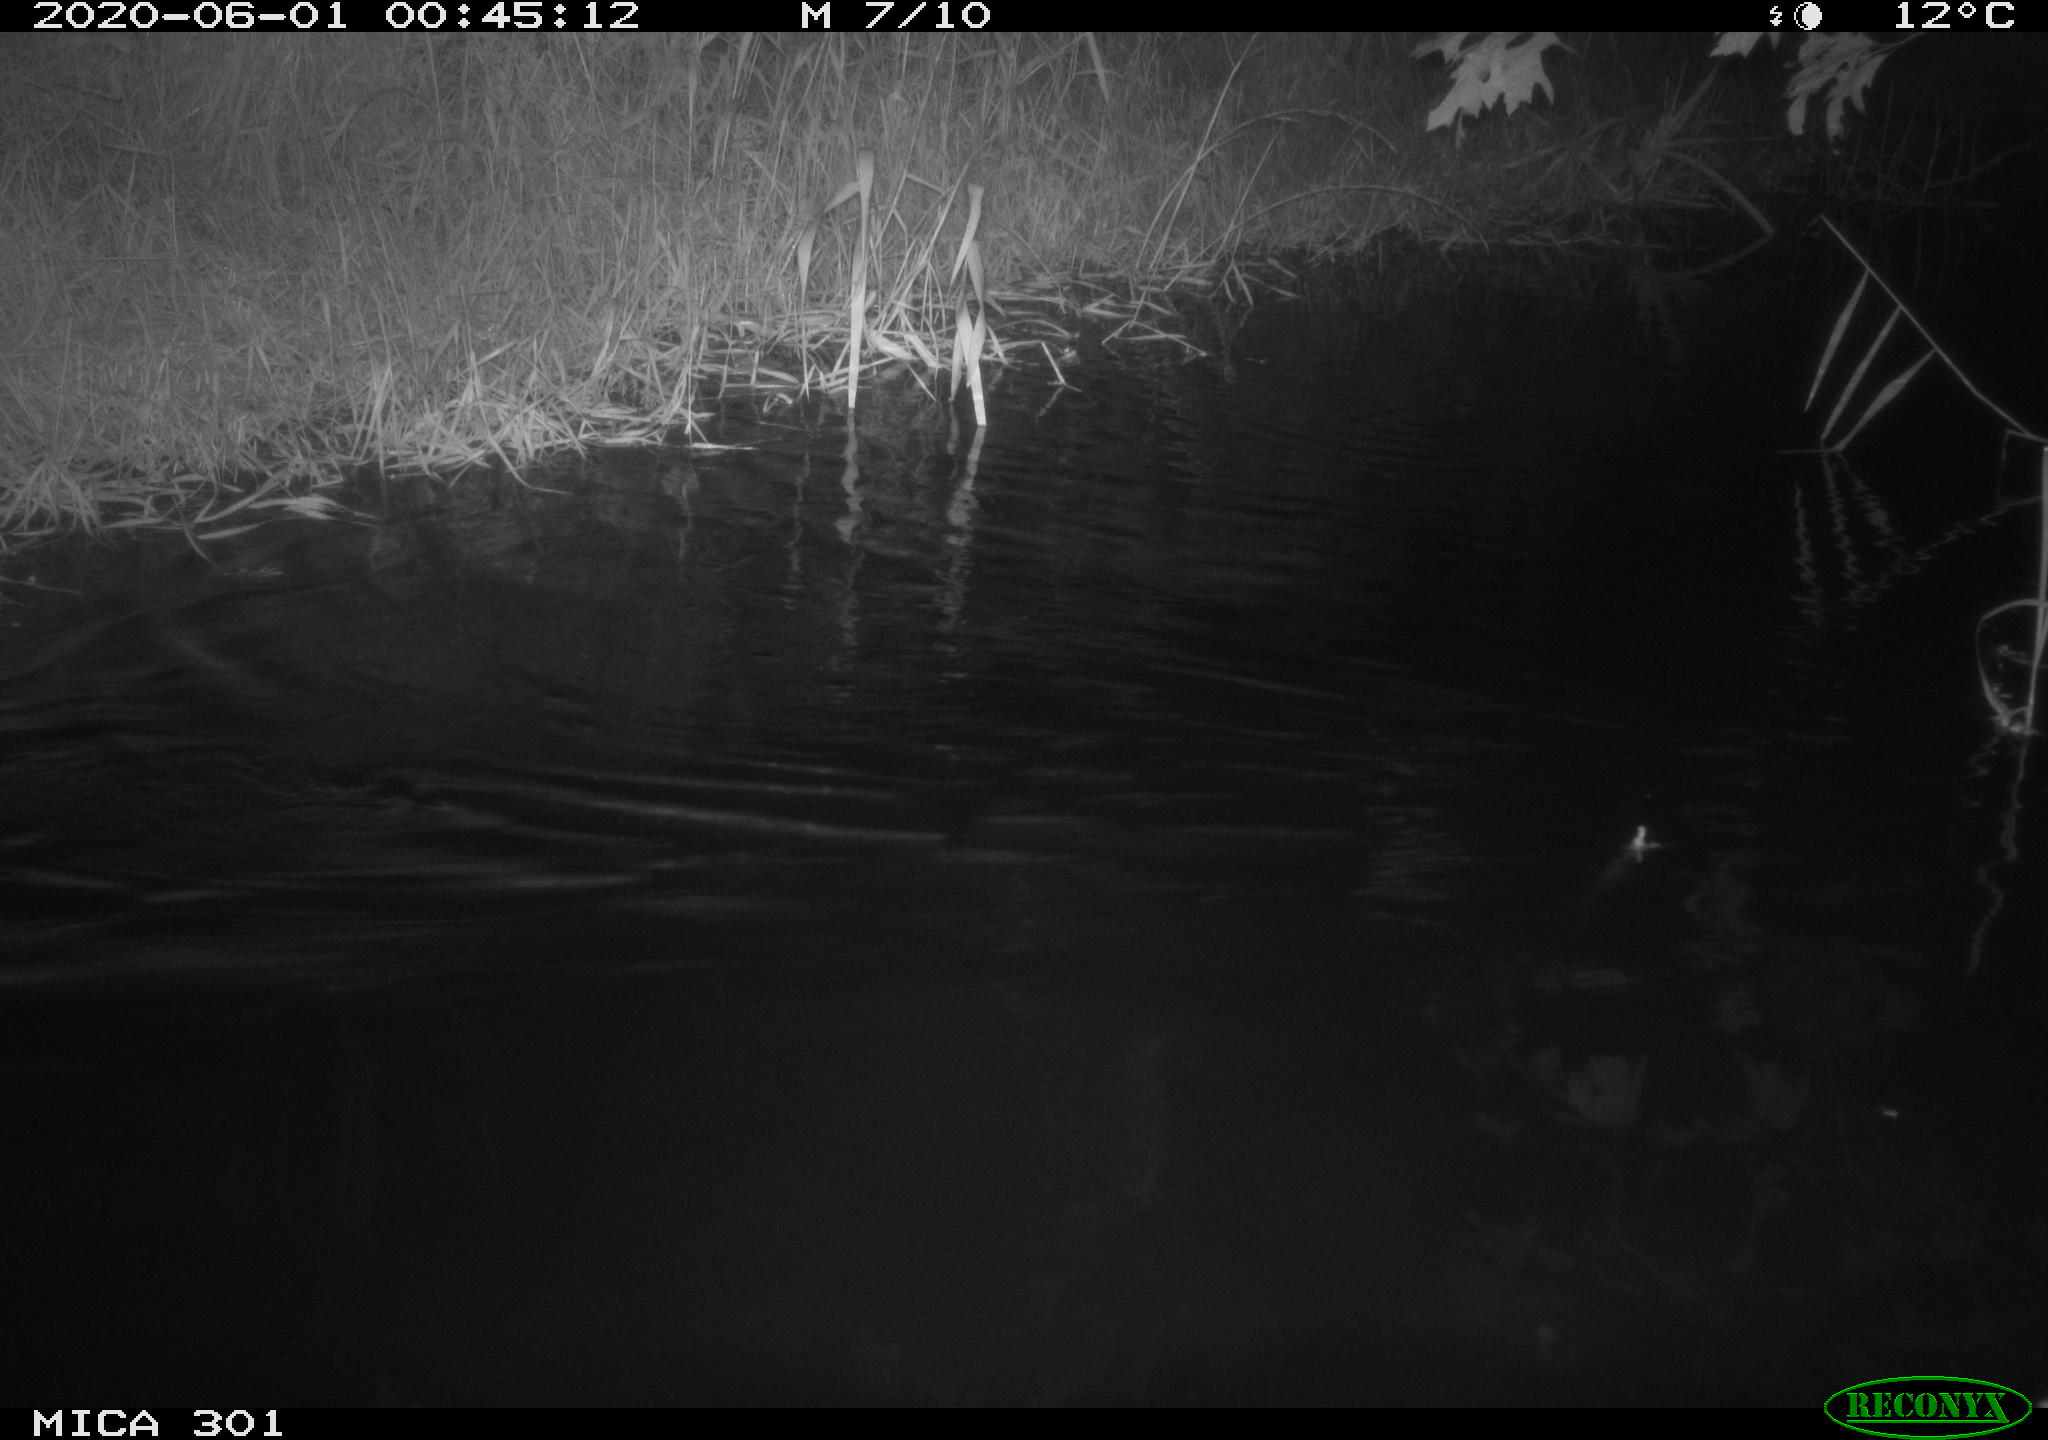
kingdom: Animalia
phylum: Chordata
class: Mammalia
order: Rodentia
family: Castoridae
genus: Castor
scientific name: Castor fiber
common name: Eurasian beaver
